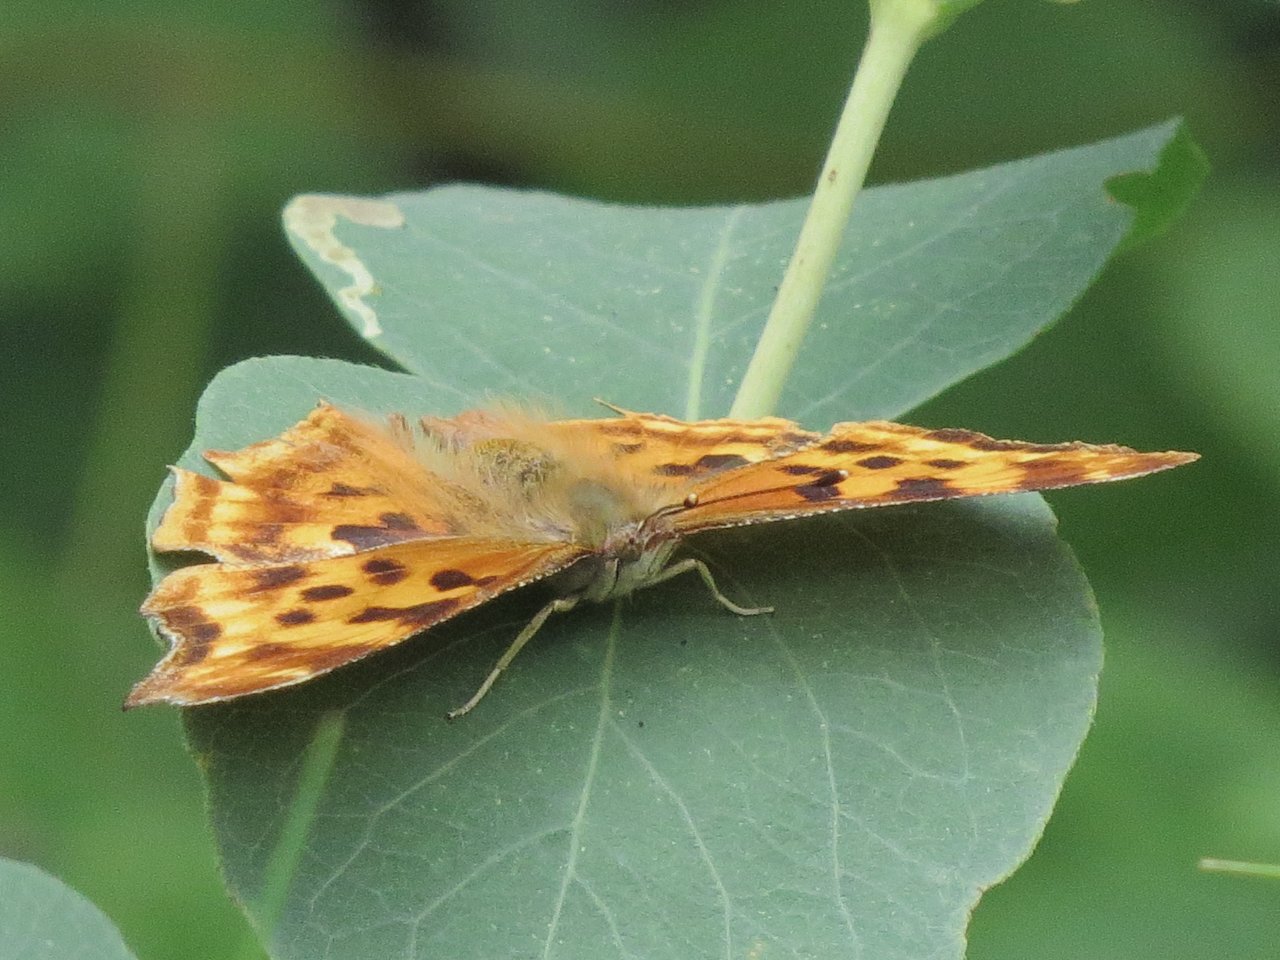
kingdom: Animalia
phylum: Arthropoda
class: Insecta
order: Lepidoptera
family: Nymphalidae
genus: Polygonia
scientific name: Polygonia satyrus
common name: Satyr Comma
